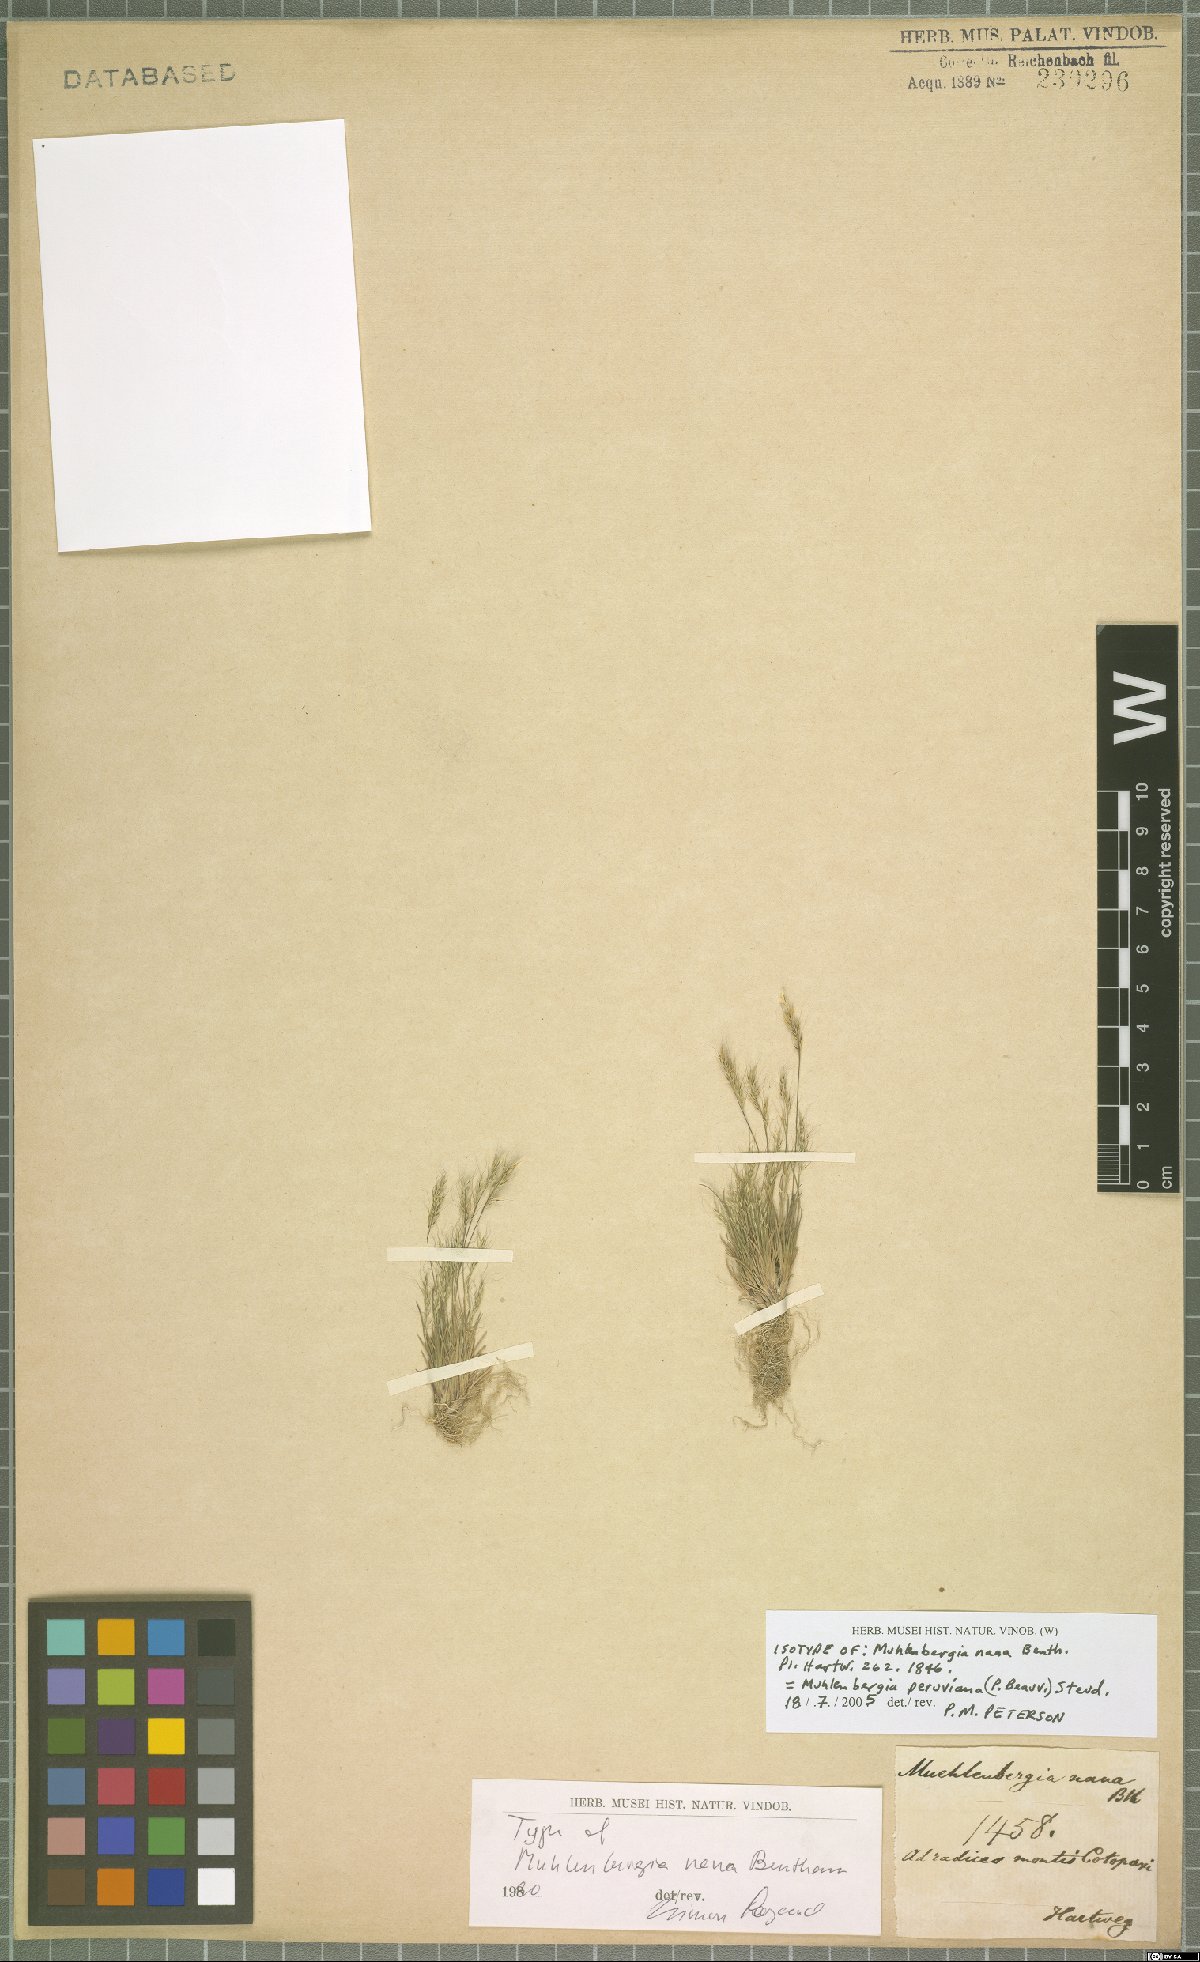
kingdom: Plantae
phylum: Tracheophyta
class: Liliopsida
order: Poales
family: Poaceae
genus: Muhlenbergia
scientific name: Muhlenbergia peruviana
